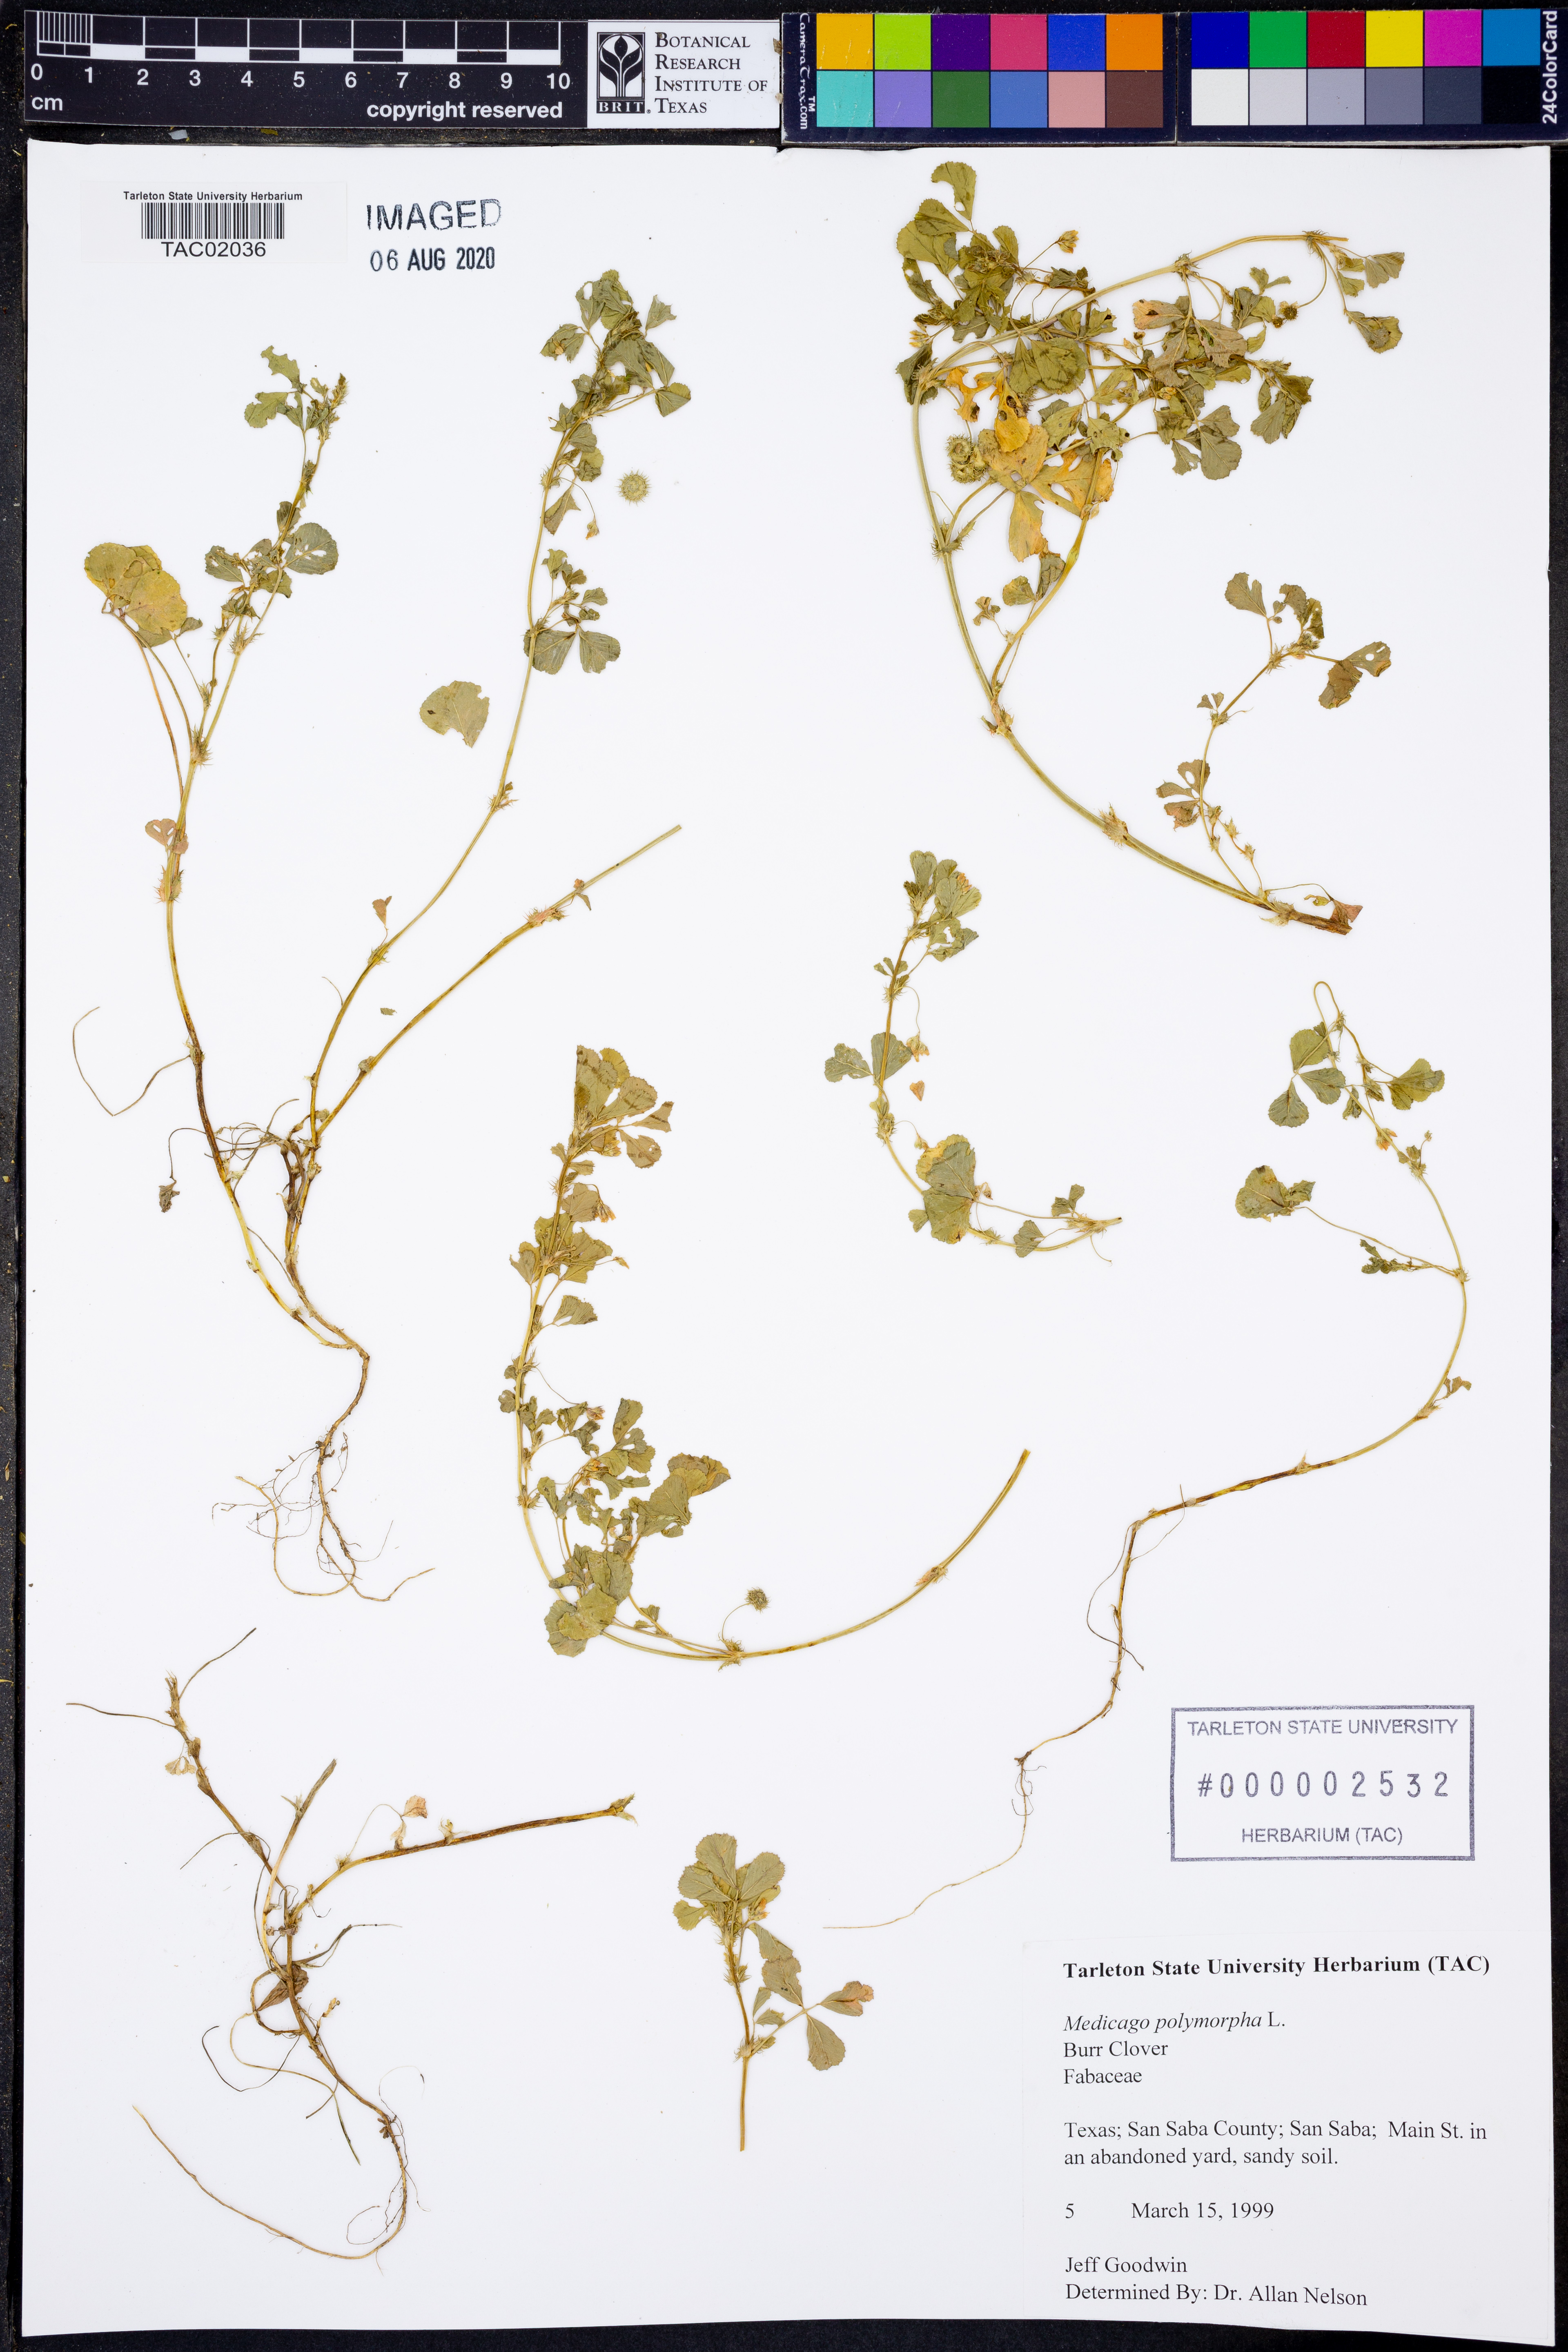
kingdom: Plantae
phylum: Tracheophyta
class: Magnoliopsida
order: Fabales
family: Fabaceae
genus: Medicago
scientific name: Medicago polymorpha
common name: Burclover
